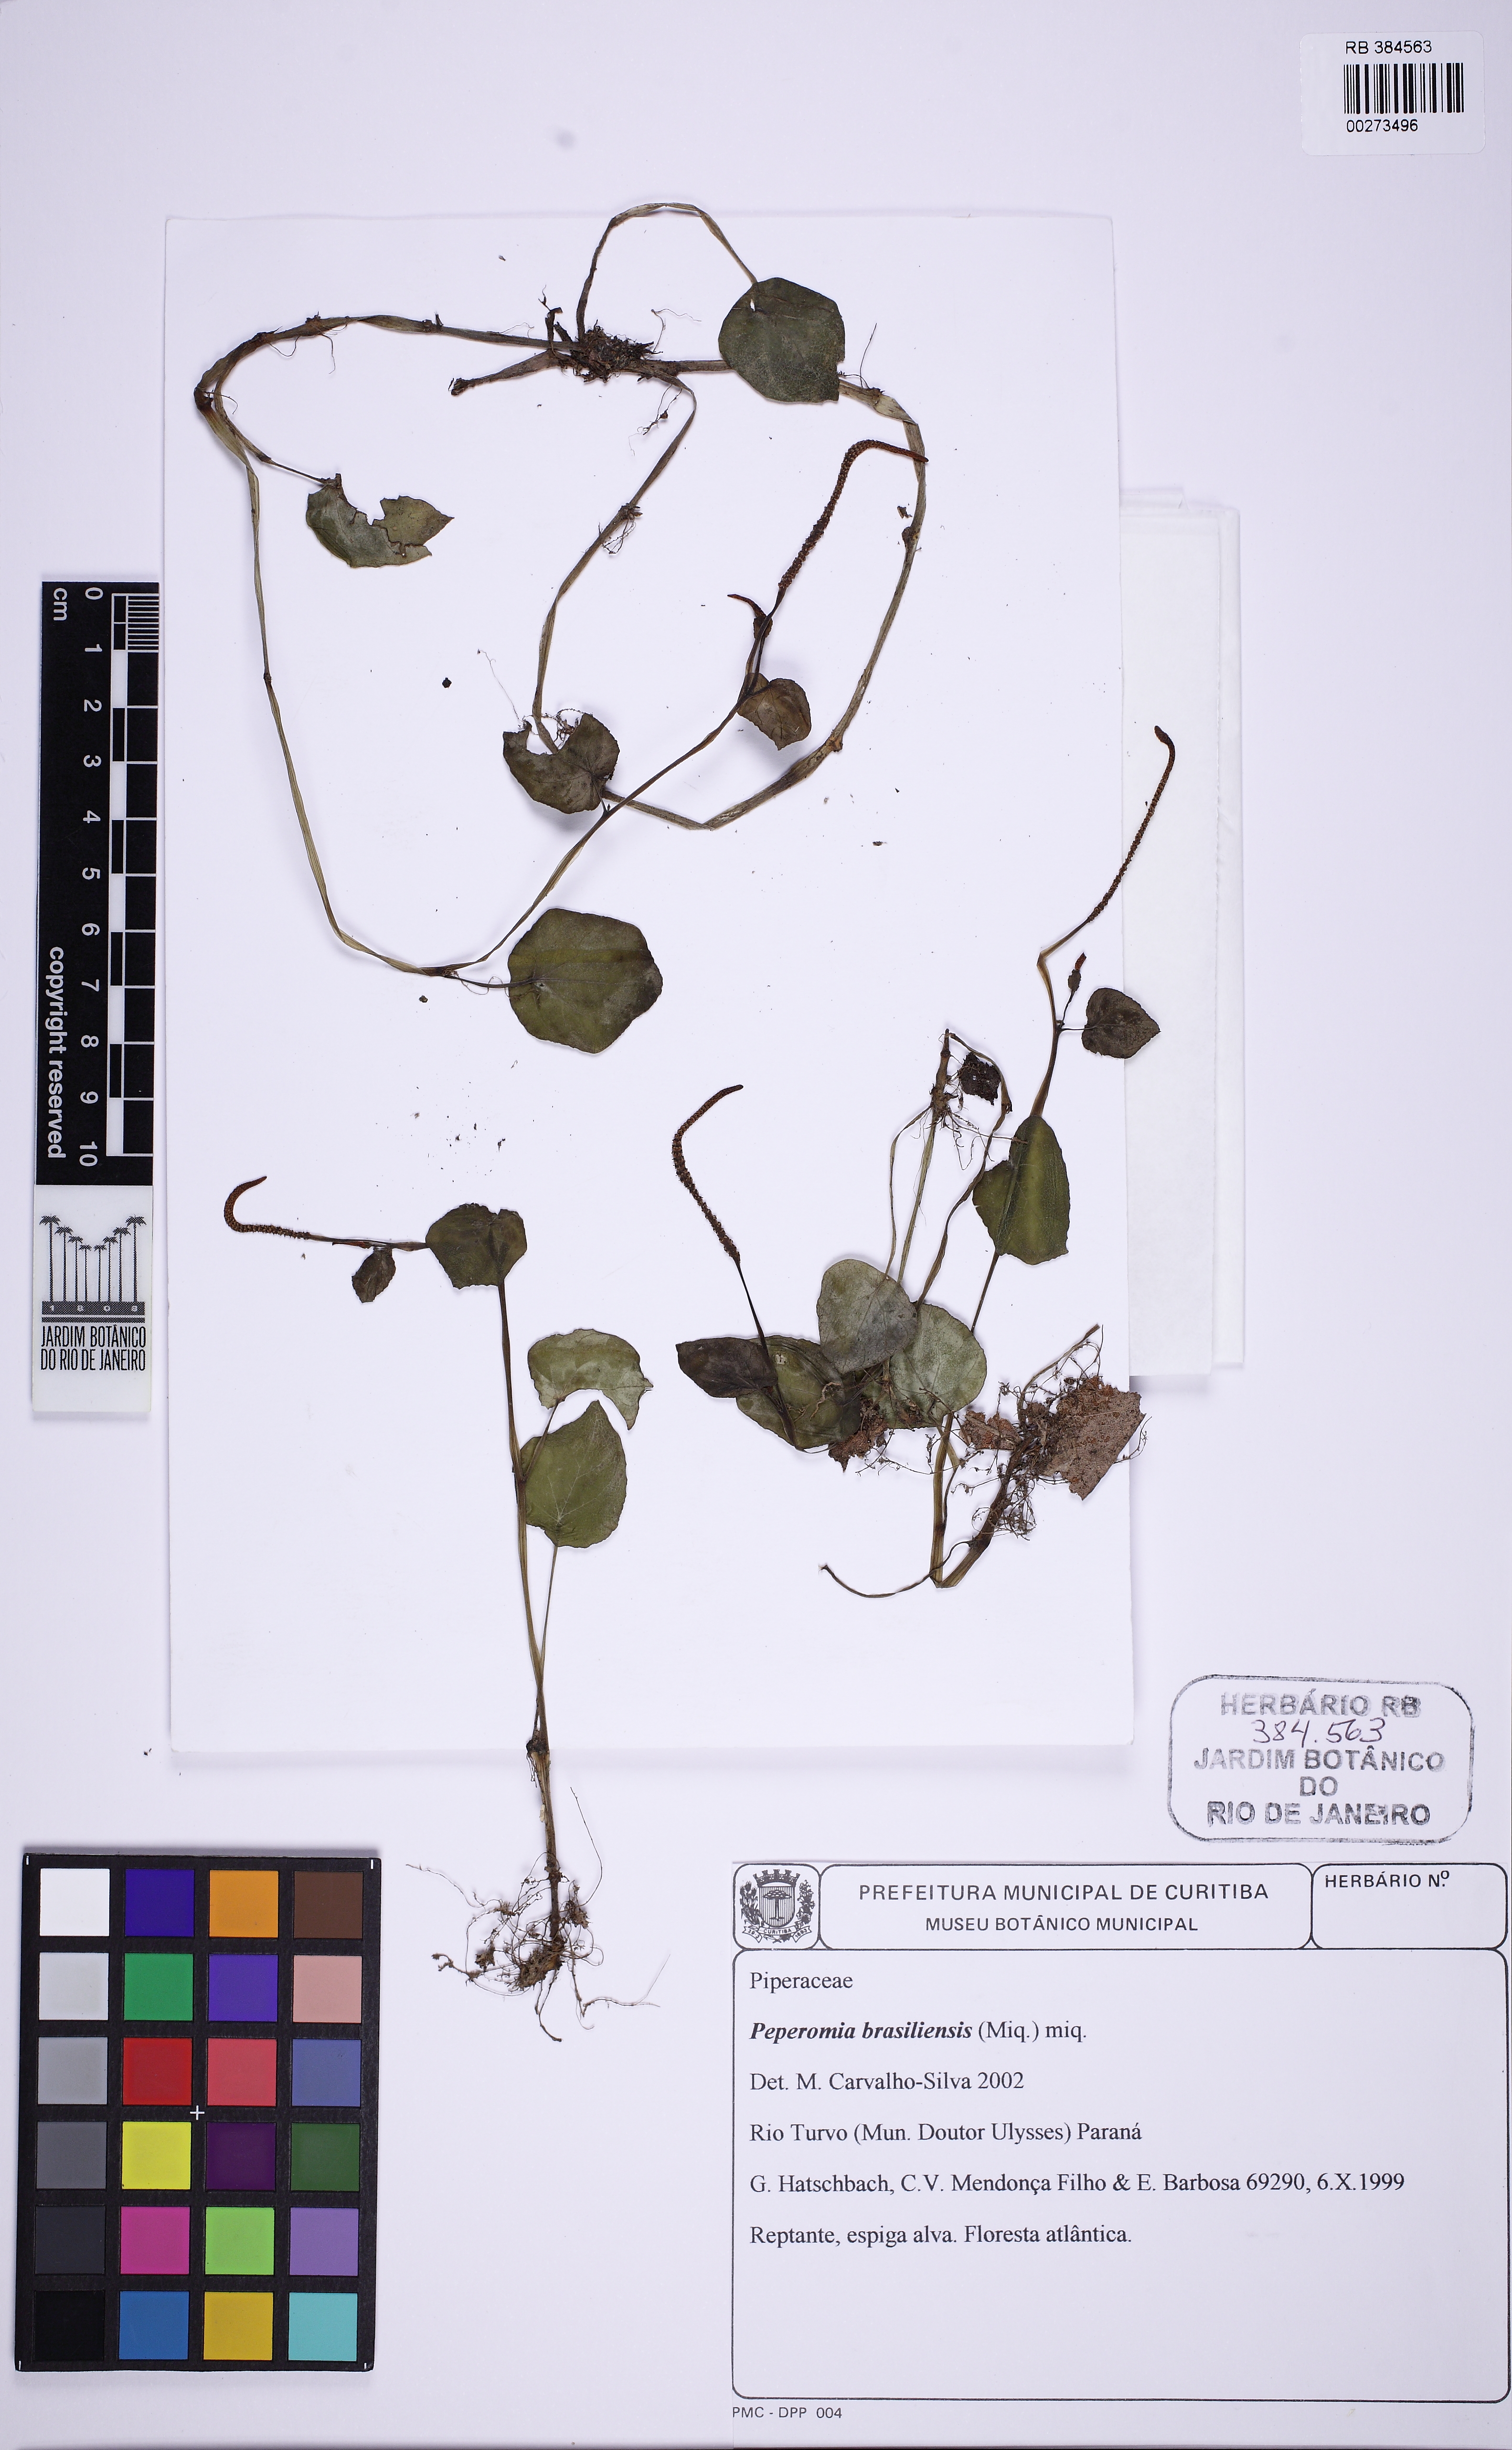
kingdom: Plantae
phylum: Tracheophyta
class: Magnoliopsida
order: Piperales
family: Piperaceae
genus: Peperomia
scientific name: Peperomia brasiliensis
